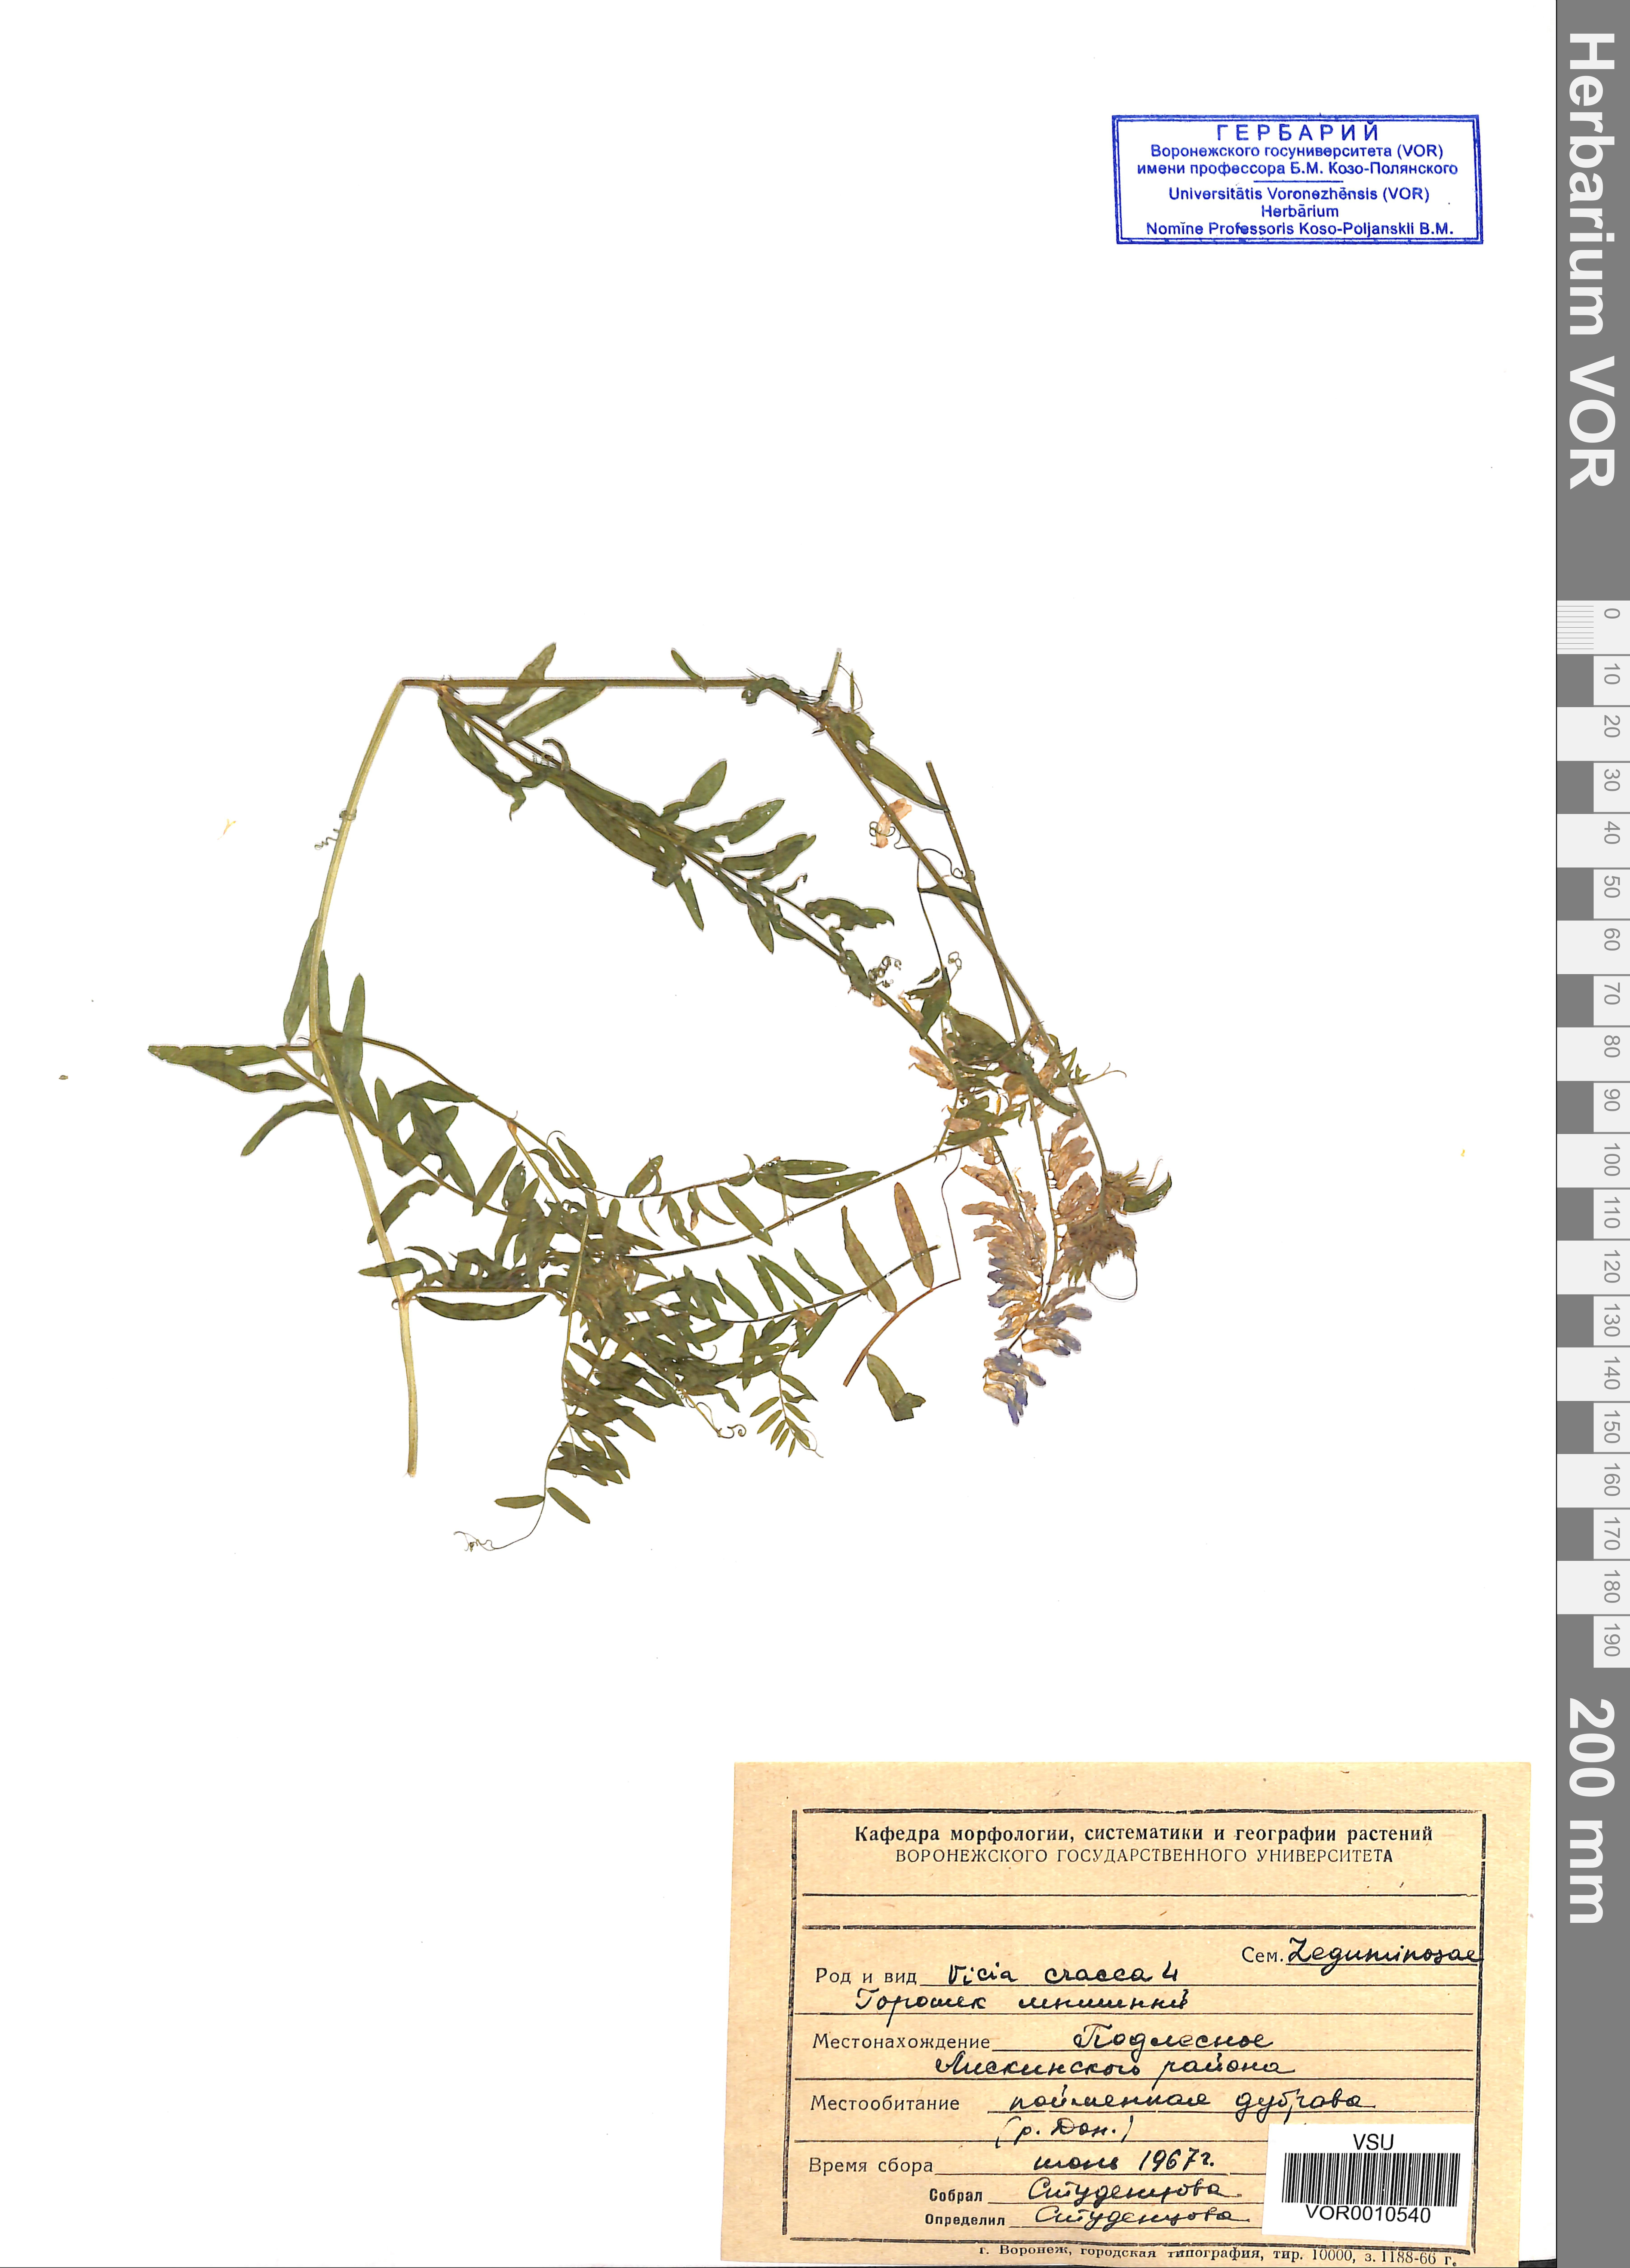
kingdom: Plantae
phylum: Tracheophyta
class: Magnoliopsida
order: Fabales
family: Fabaceae
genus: Vicia
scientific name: Vicia cracca
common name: Bird vetch
